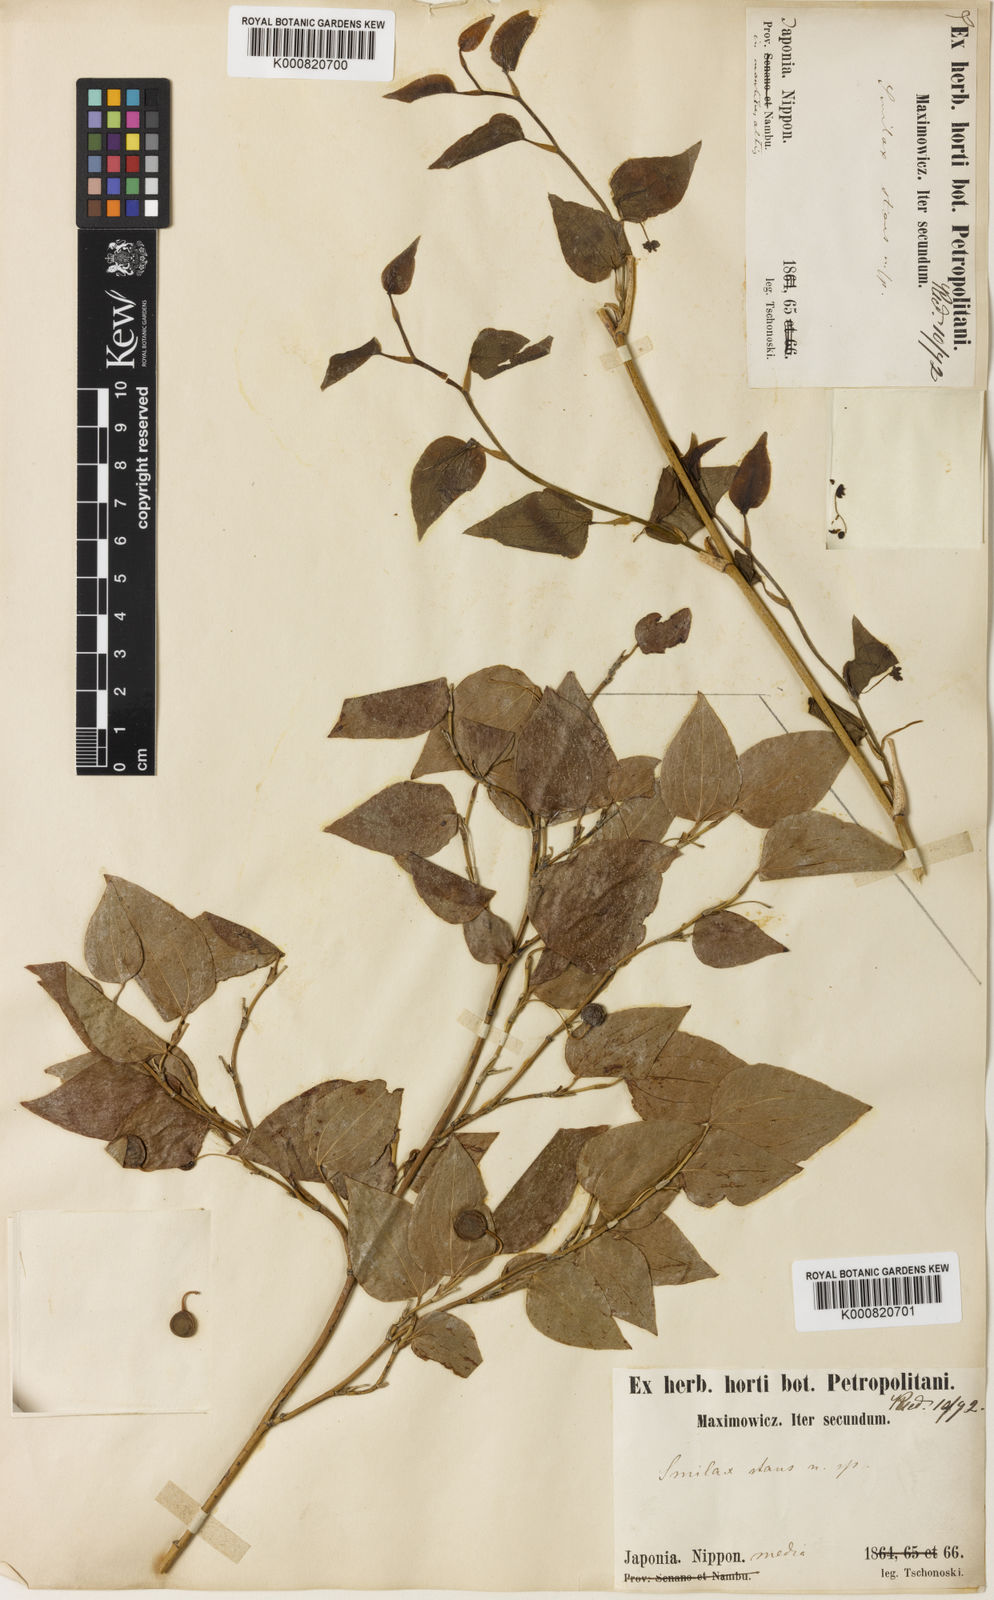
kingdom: Plantae
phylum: Tracheophyta
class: Liliopsida
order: Liliales
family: Smilacaceae
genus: Smilax
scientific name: Smilax stans
